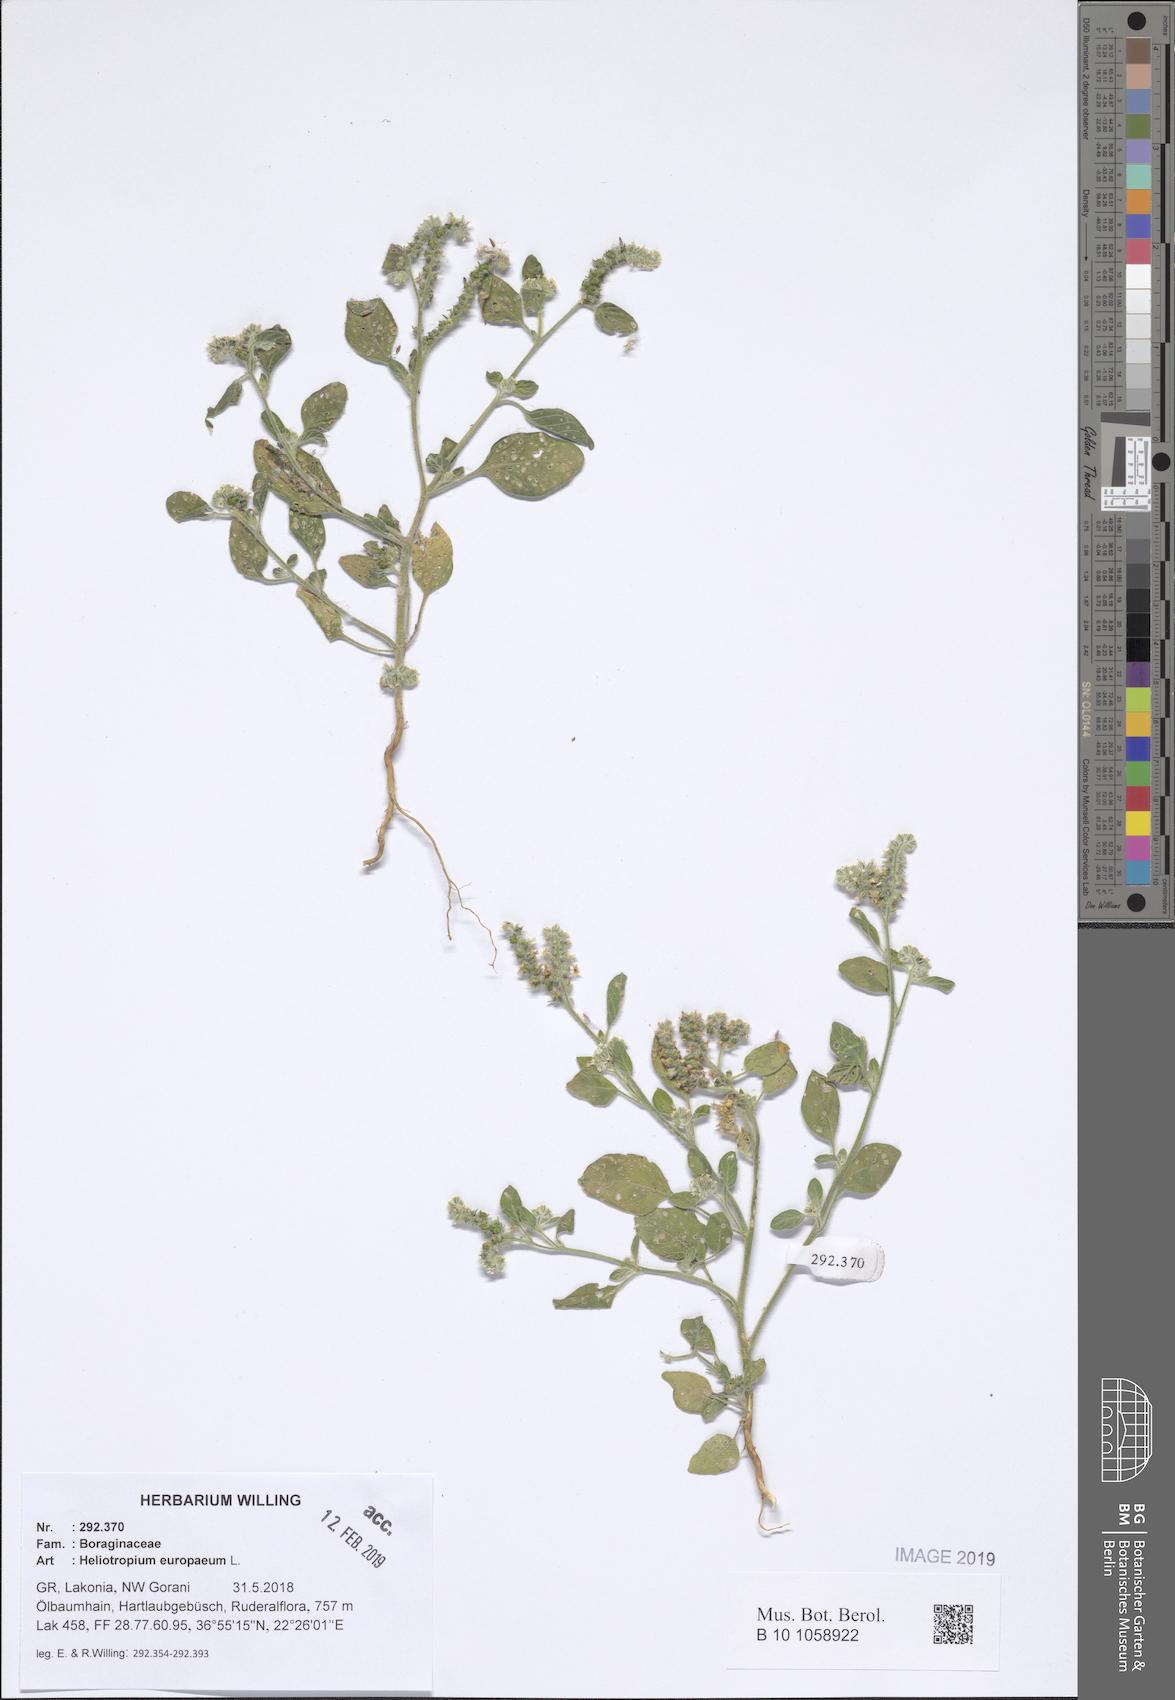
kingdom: Plantae
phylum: Tracheophyta
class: Magnoliopsida
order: Boraginales
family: Heliotropiaceae
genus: Heliotropium
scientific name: Heliotropium europaeum
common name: European heliotrope
